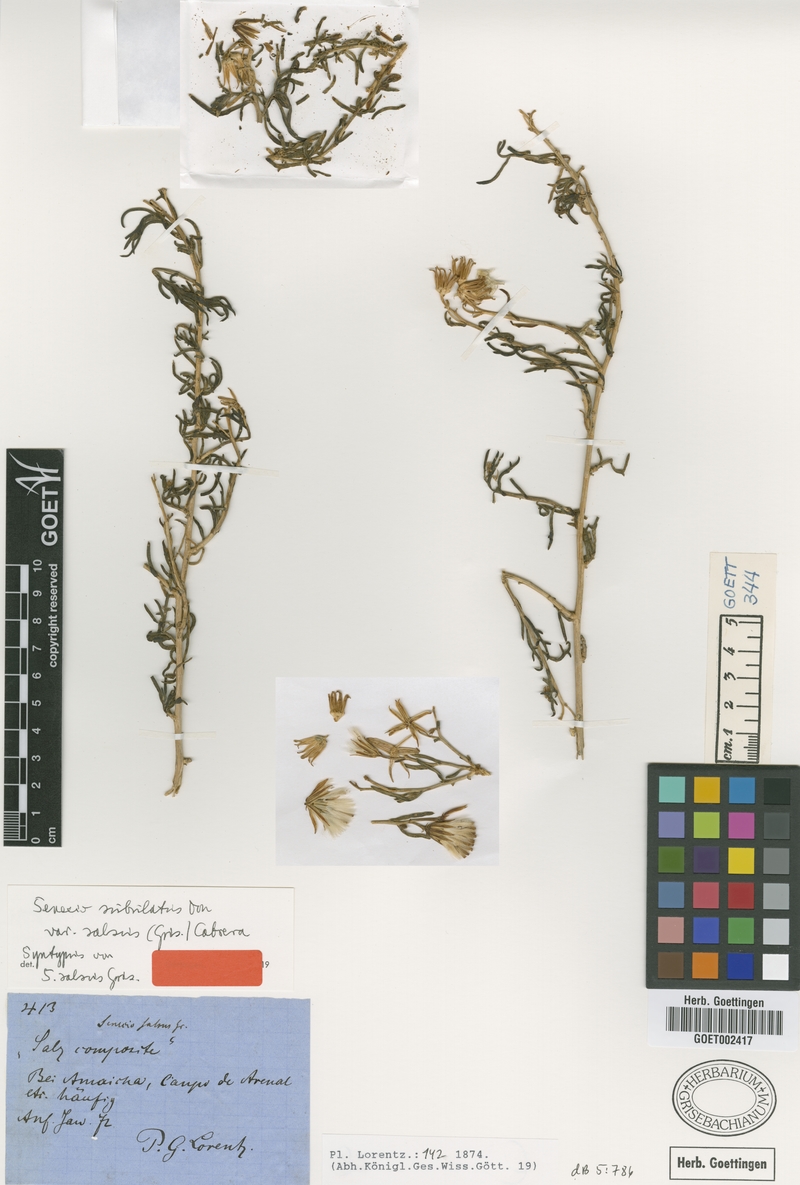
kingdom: Plantae
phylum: Tracheophyta
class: Magnoliopsida
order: Asterales
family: Asteraceae
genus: Senecio
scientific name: Senecio subulatus
